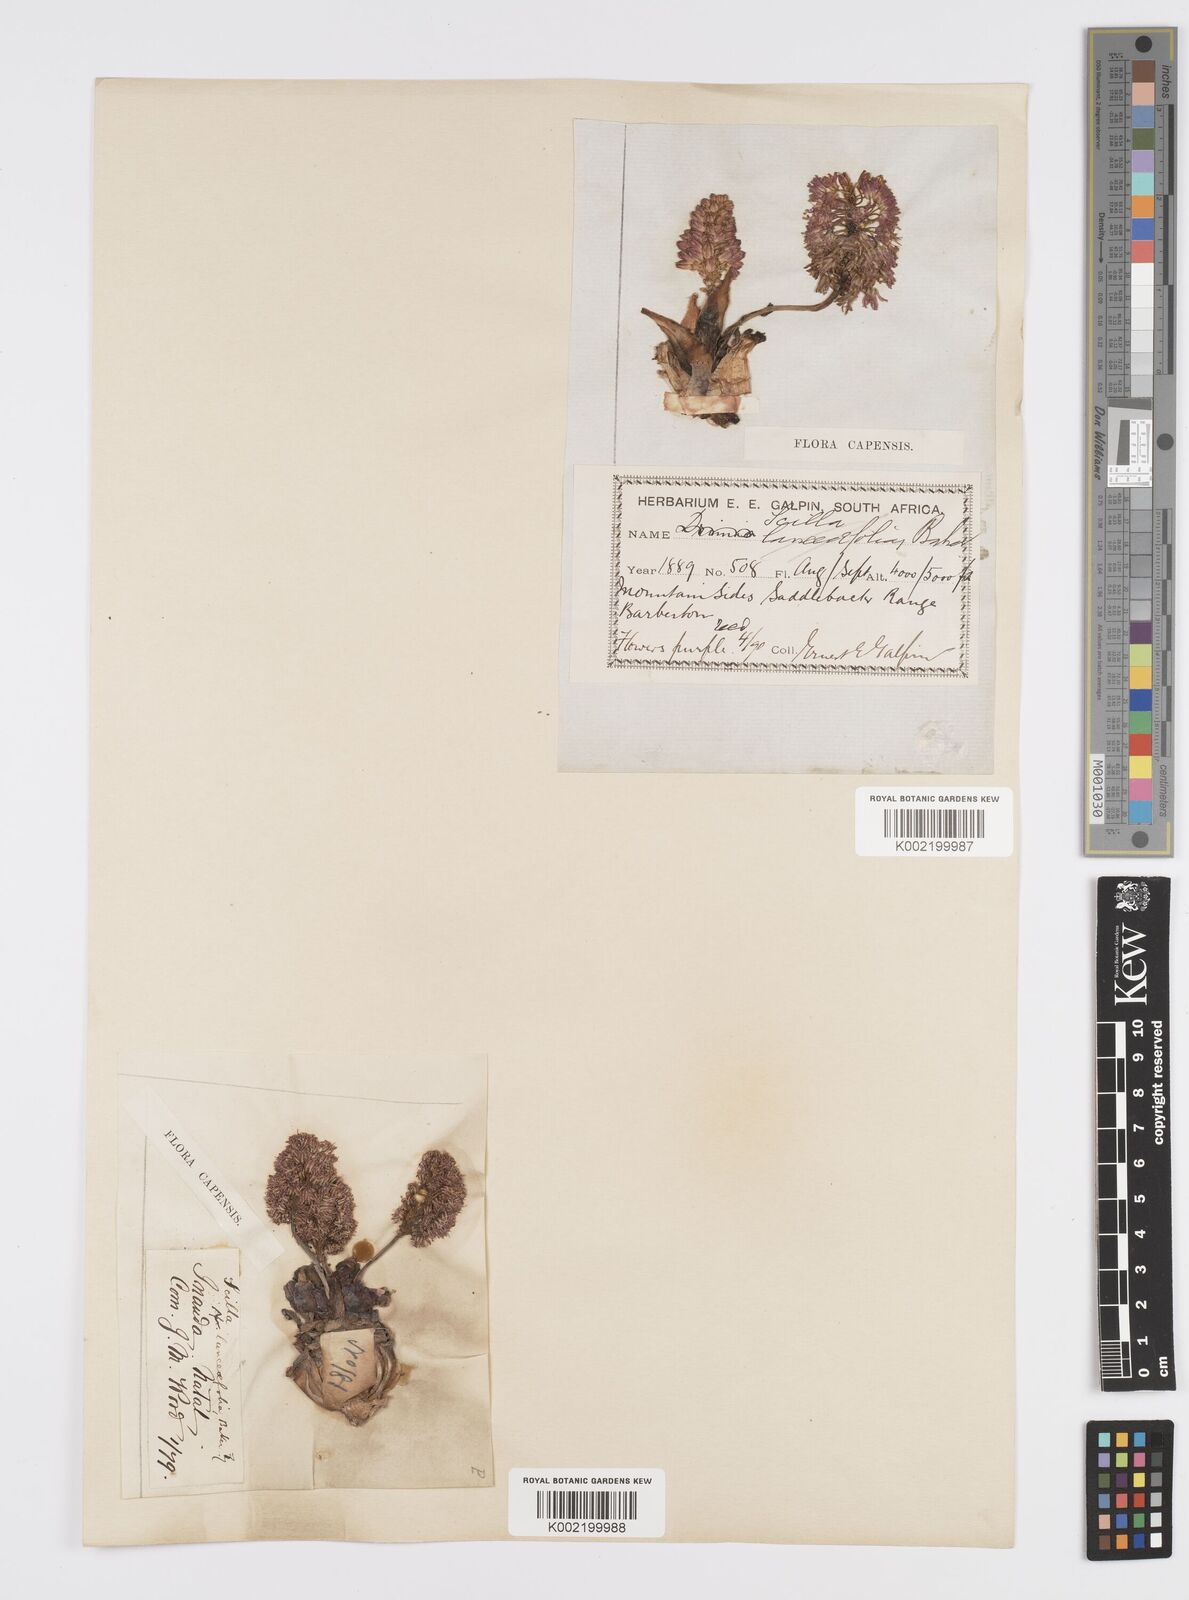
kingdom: Plantae
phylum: Tracheophyta
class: Liliopsida
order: Asparagales
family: Asparagaceae
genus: Ledebouria
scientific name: Ledebouria ovatifolia
